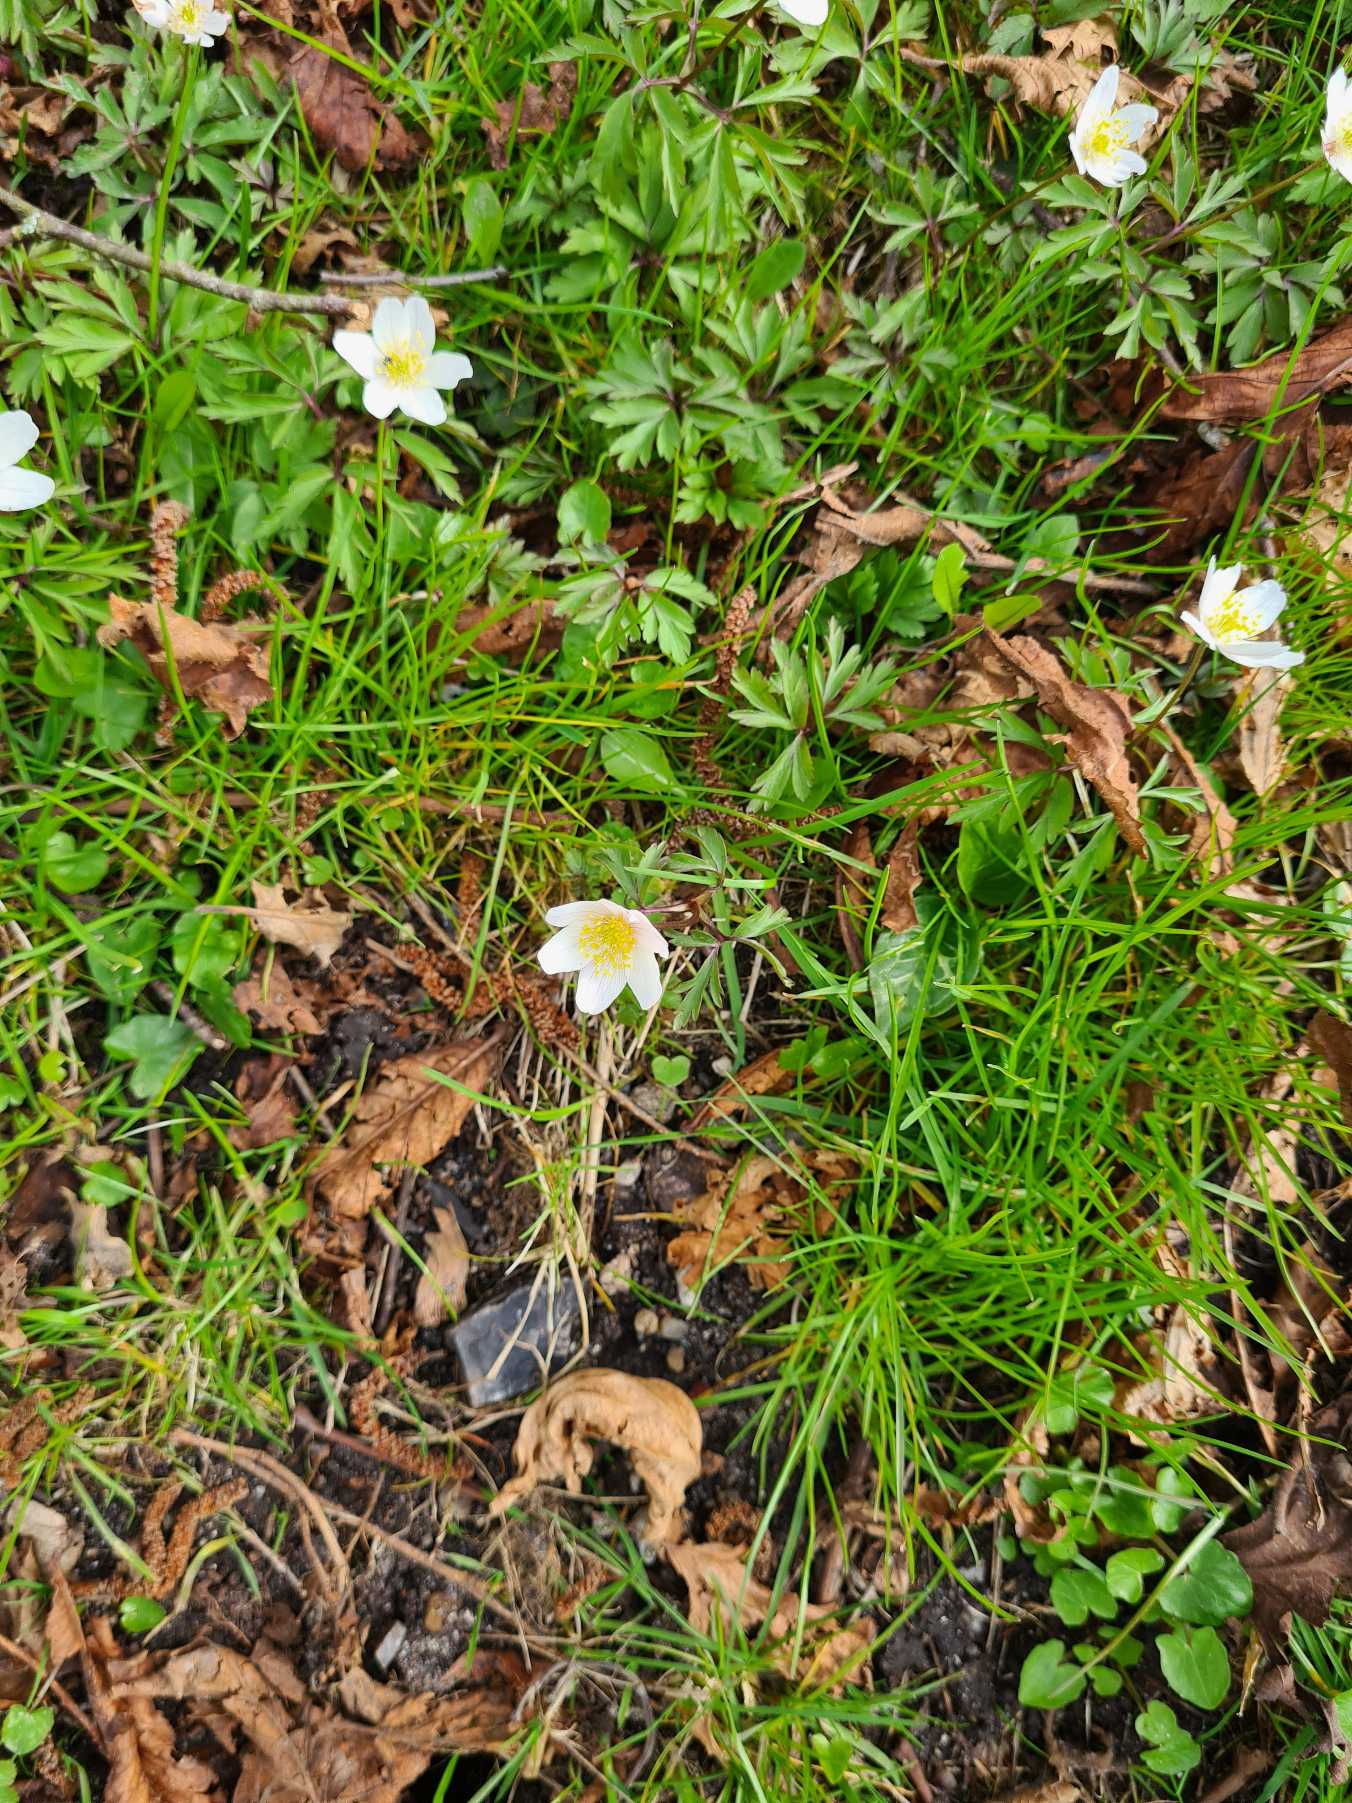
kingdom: Plantae
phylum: Tracheophyta
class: Magnoliopsida
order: Ranunculales
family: Ranunculaceae
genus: Anemone
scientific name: Anemone nemorosa
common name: Hvid anemone
